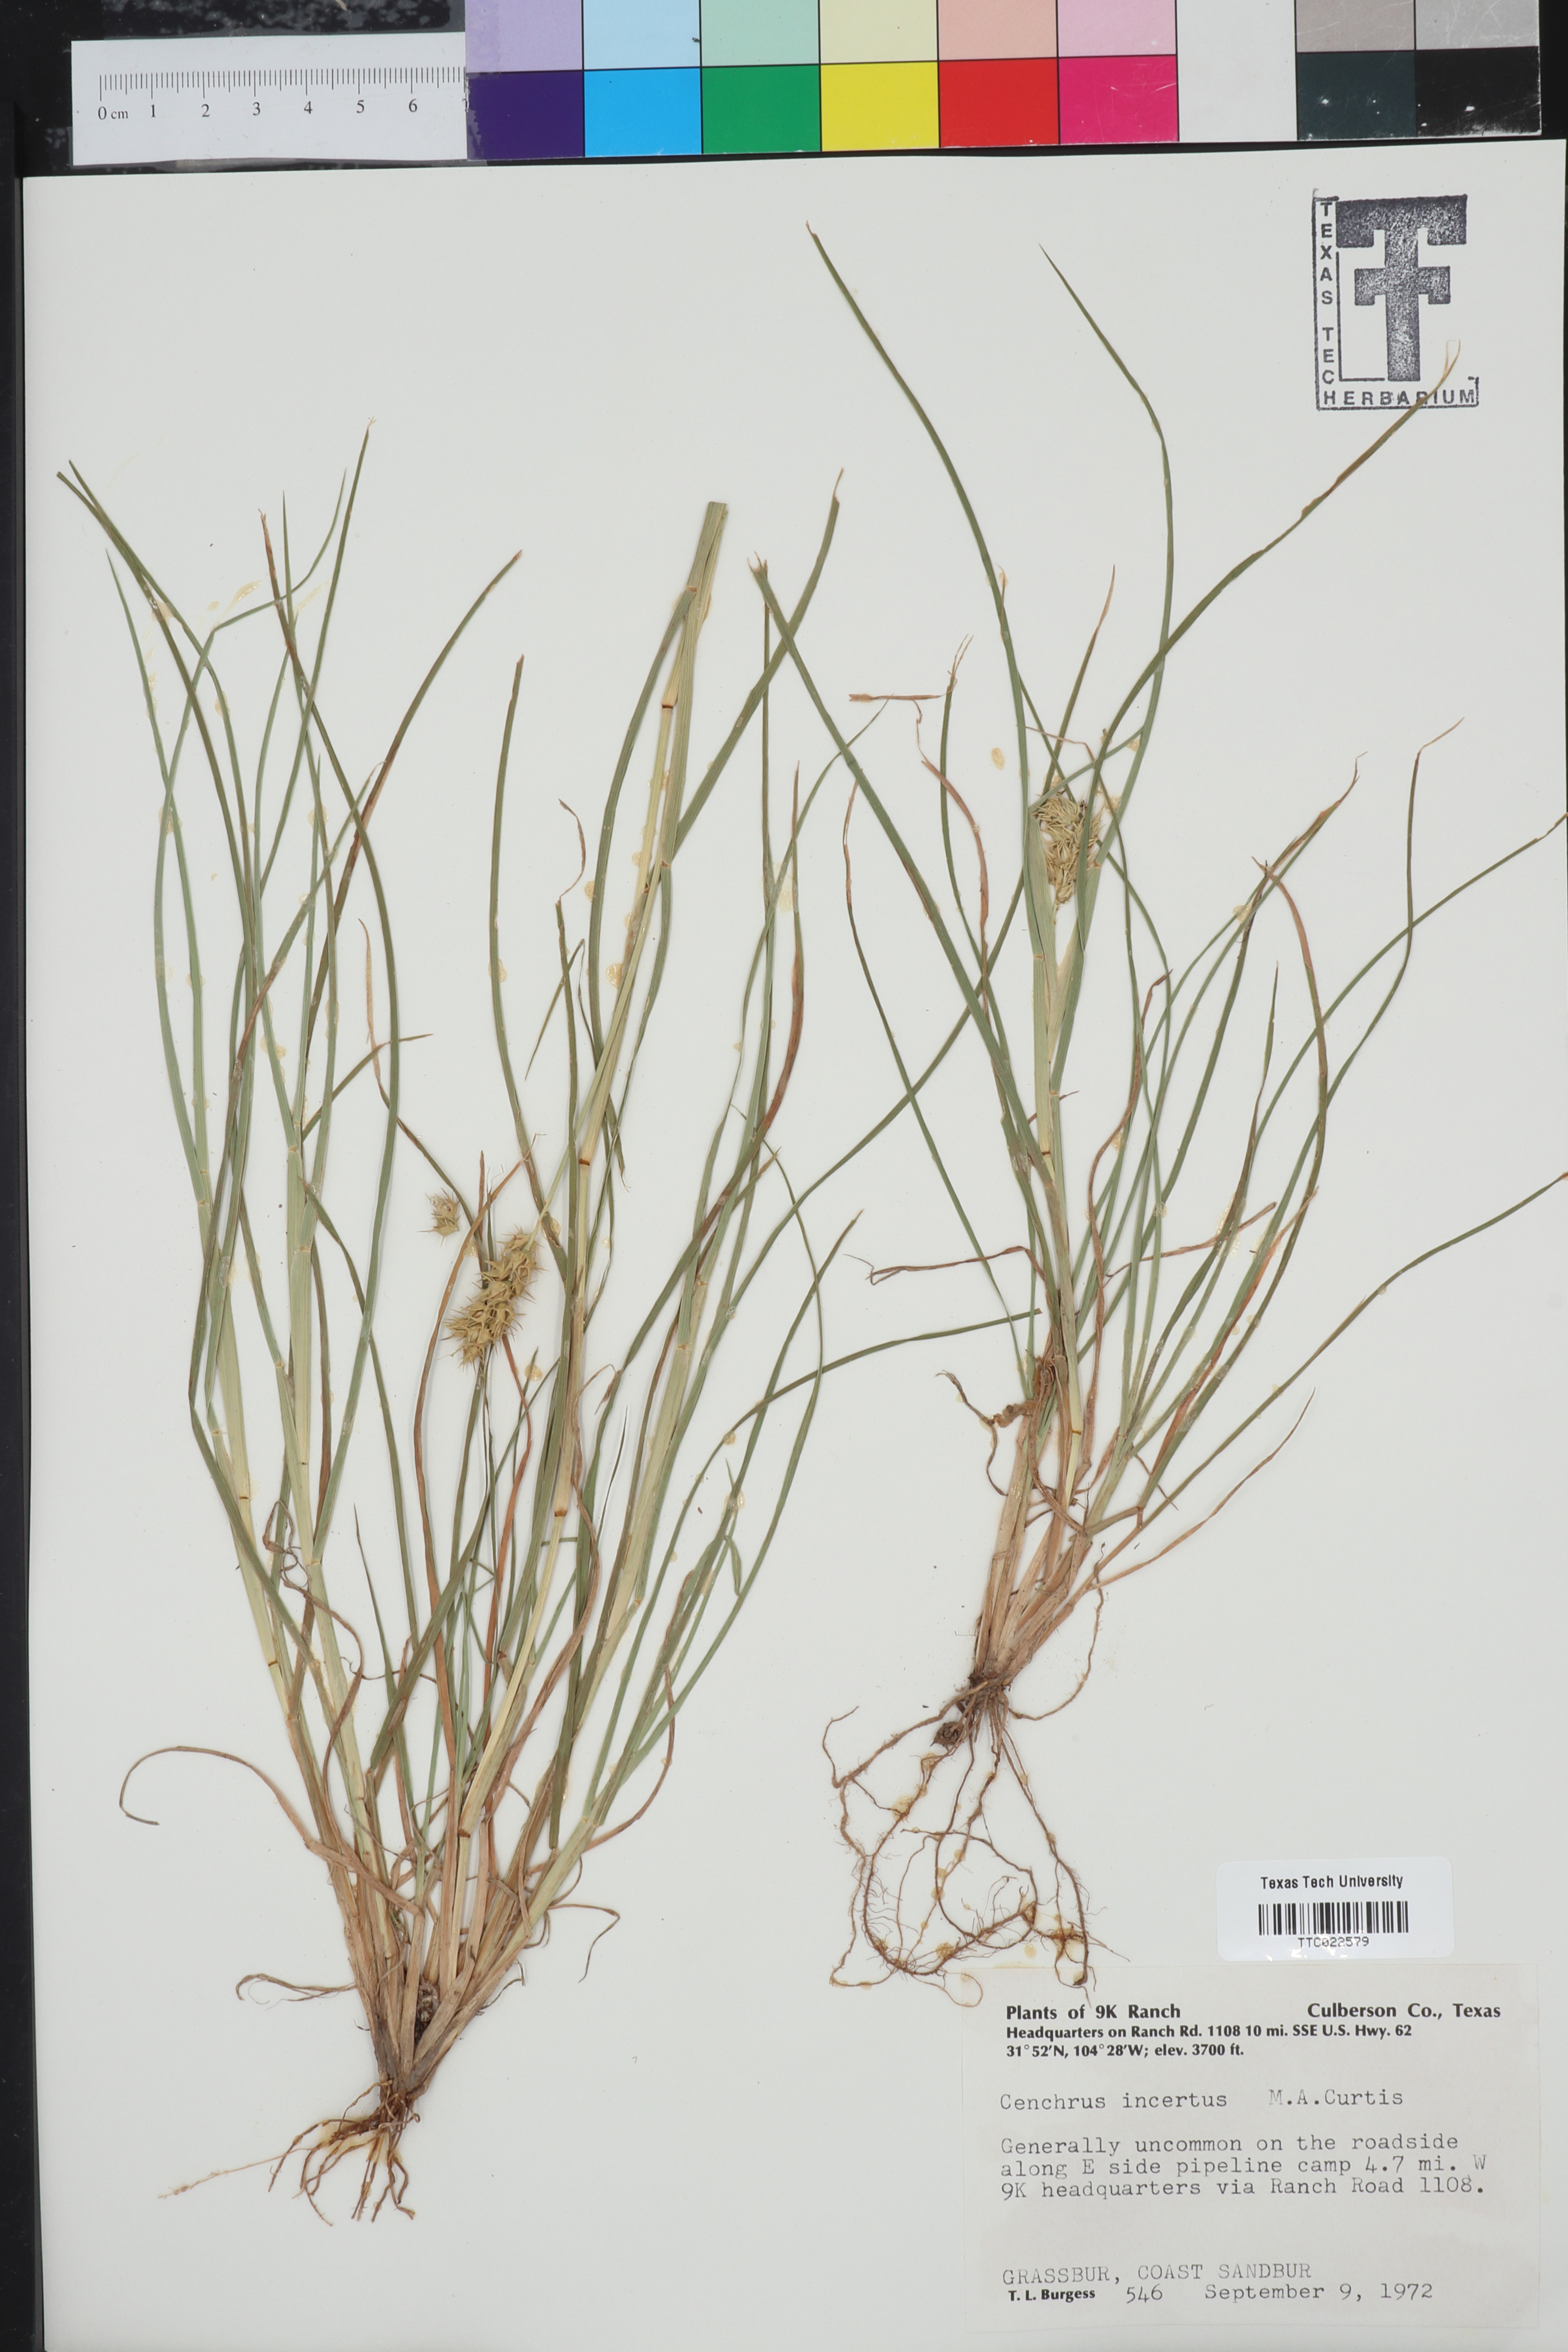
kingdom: Plantae
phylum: Tracheophyta
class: Liliopsida
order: Poales
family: Poaceae
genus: Cenchrus
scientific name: Cenchrus spinifex
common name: Coast sandbur
